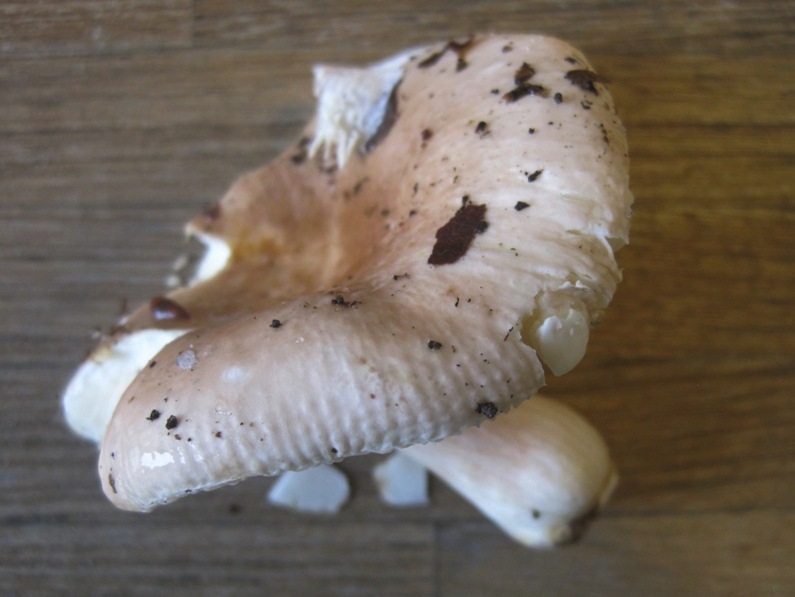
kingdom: Fungi
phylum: Basidiomycota
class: Agaricomycetes
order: Russulales
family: Russulaceae
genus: Russula
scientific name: Russula veternosa
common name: blødkødet skørhat
